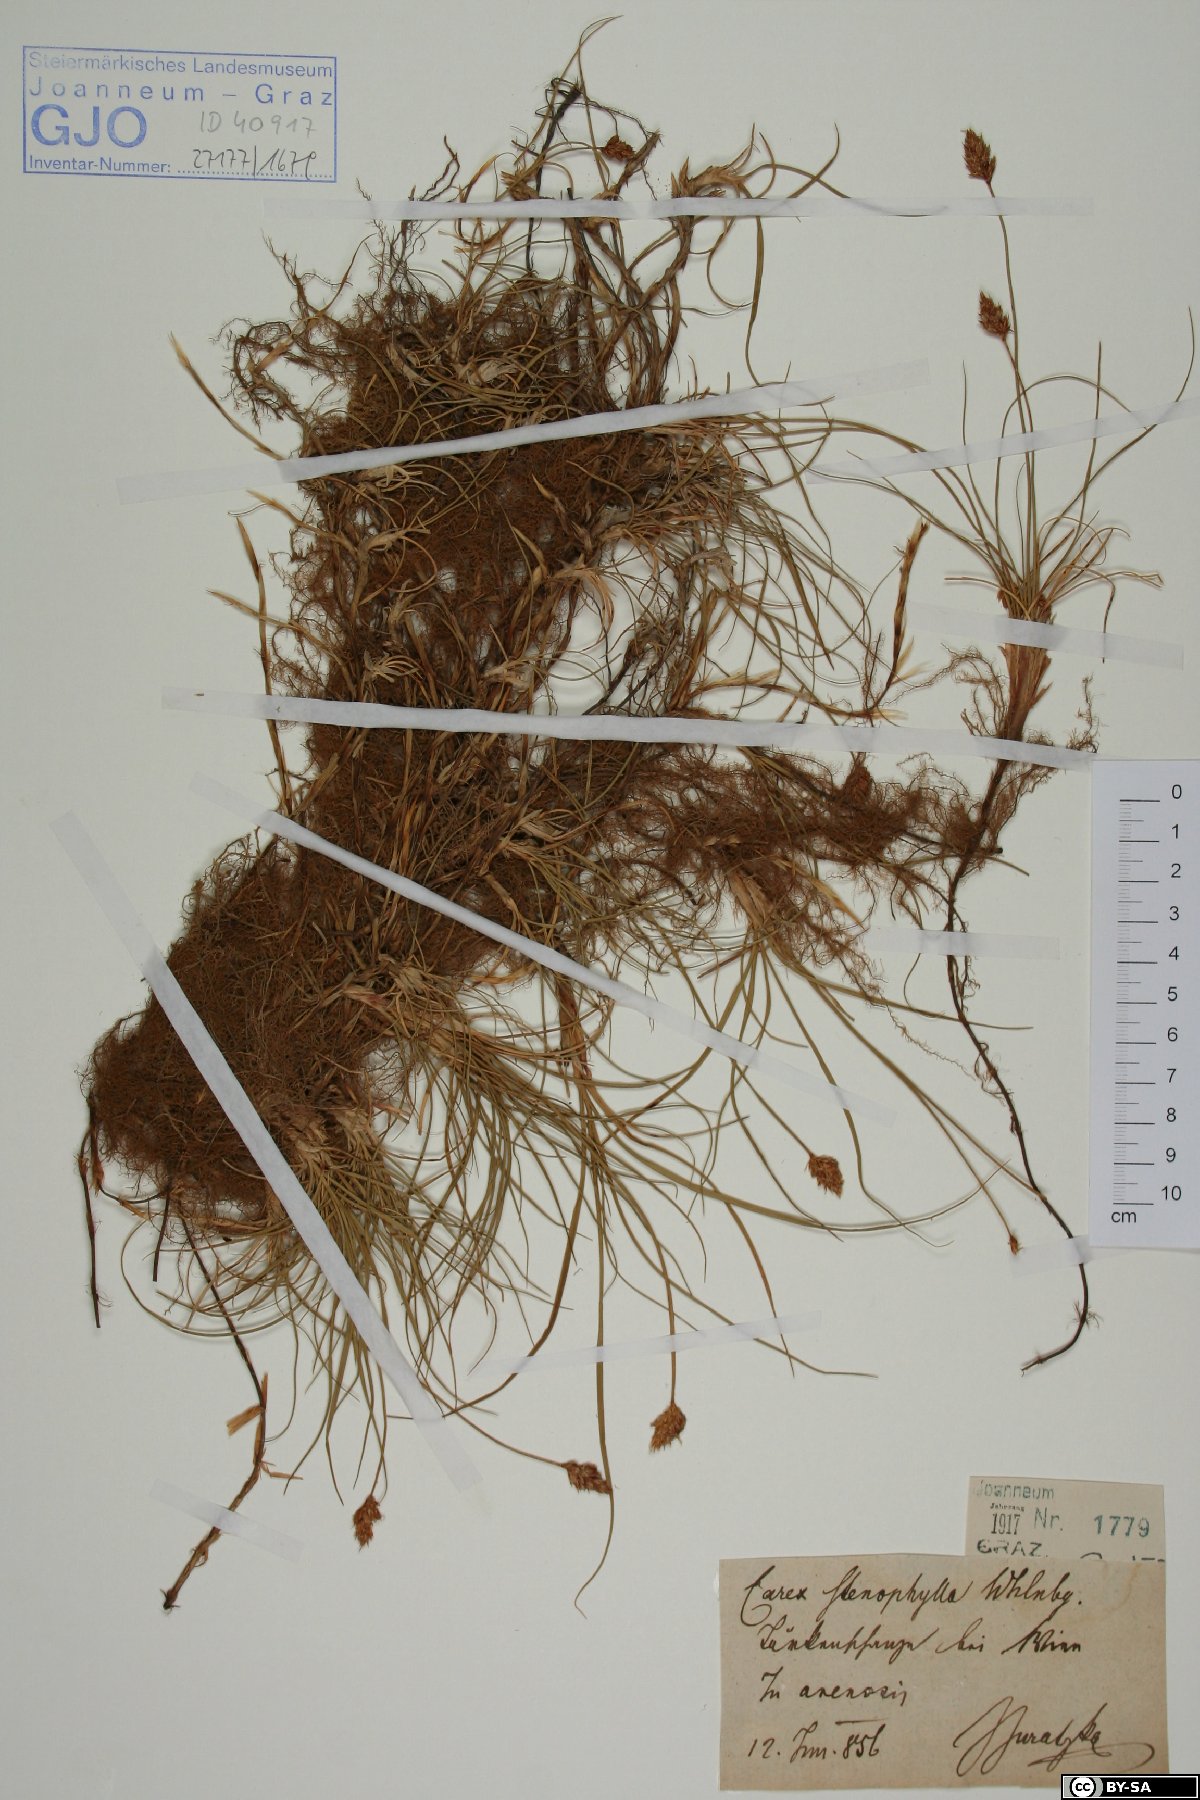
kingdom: Plantae
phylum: Tracheophyta
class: Liliopsida
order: Poales
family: Cyperaceae
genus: Carex
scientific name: Carex stenophylla
